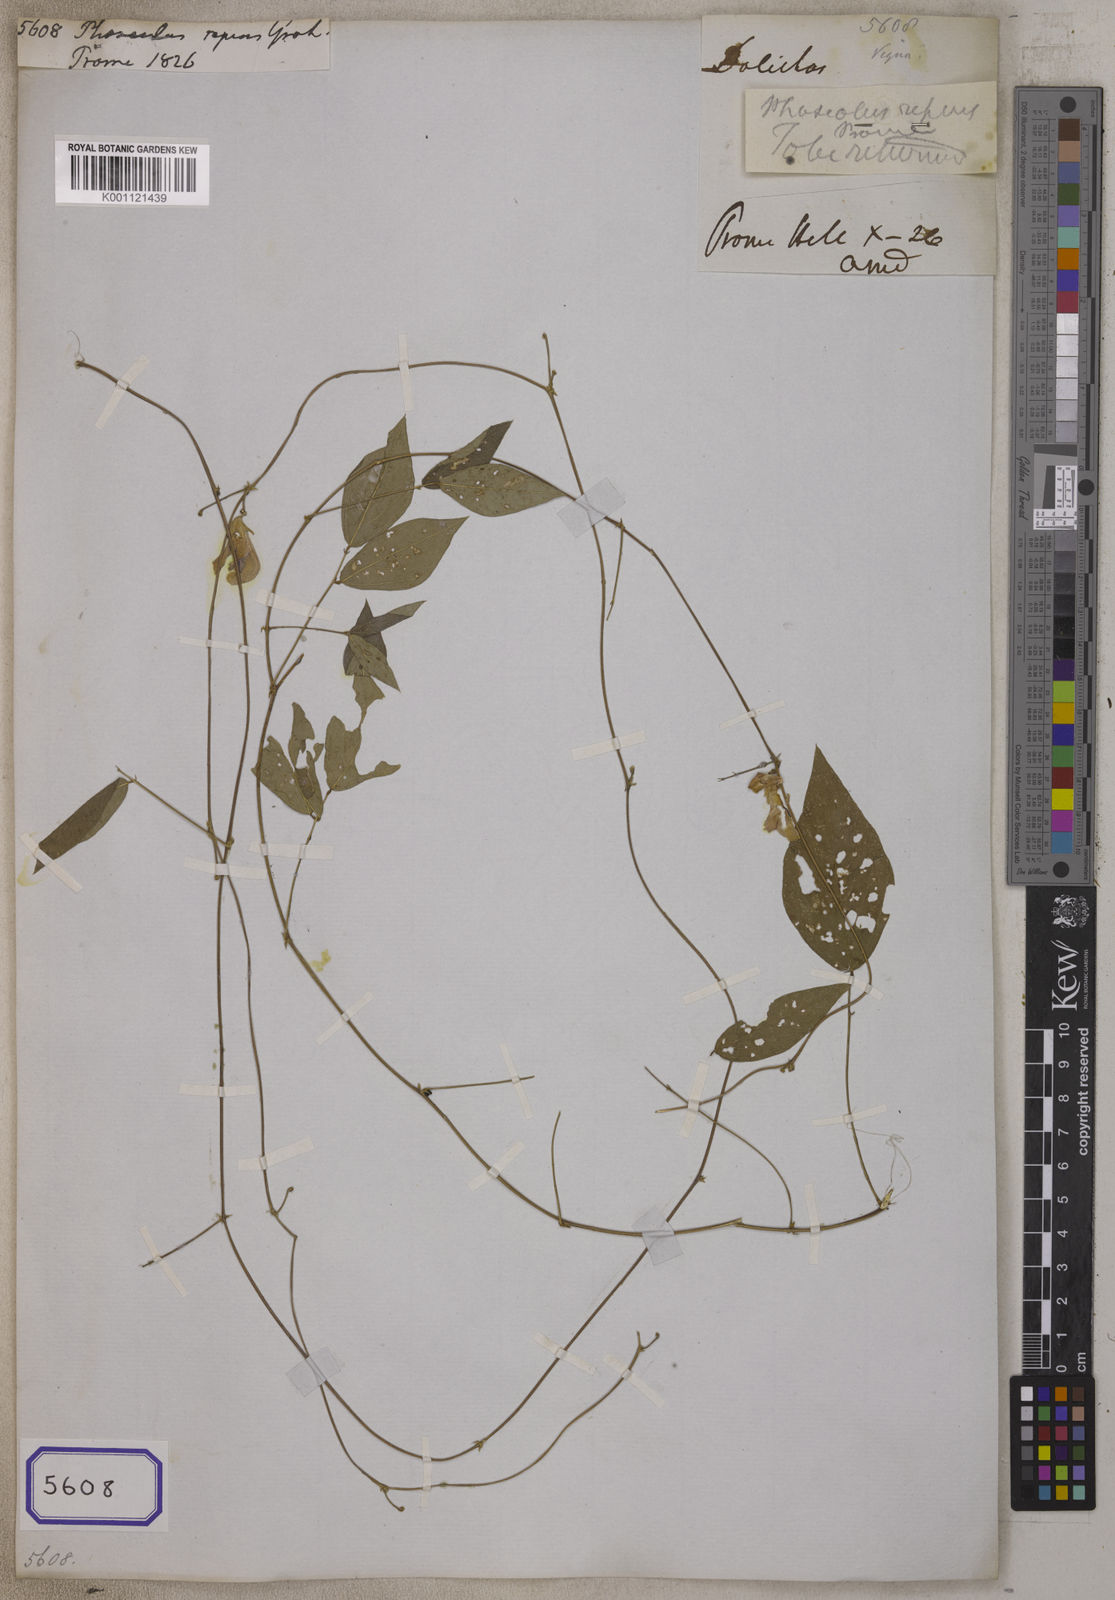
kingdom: Plantae
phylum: Tracheophyta
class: Magnoliopsida
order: Fabales
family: Fabaceae
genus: Nesphostylis
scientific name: Nesphostylis lanceolata
